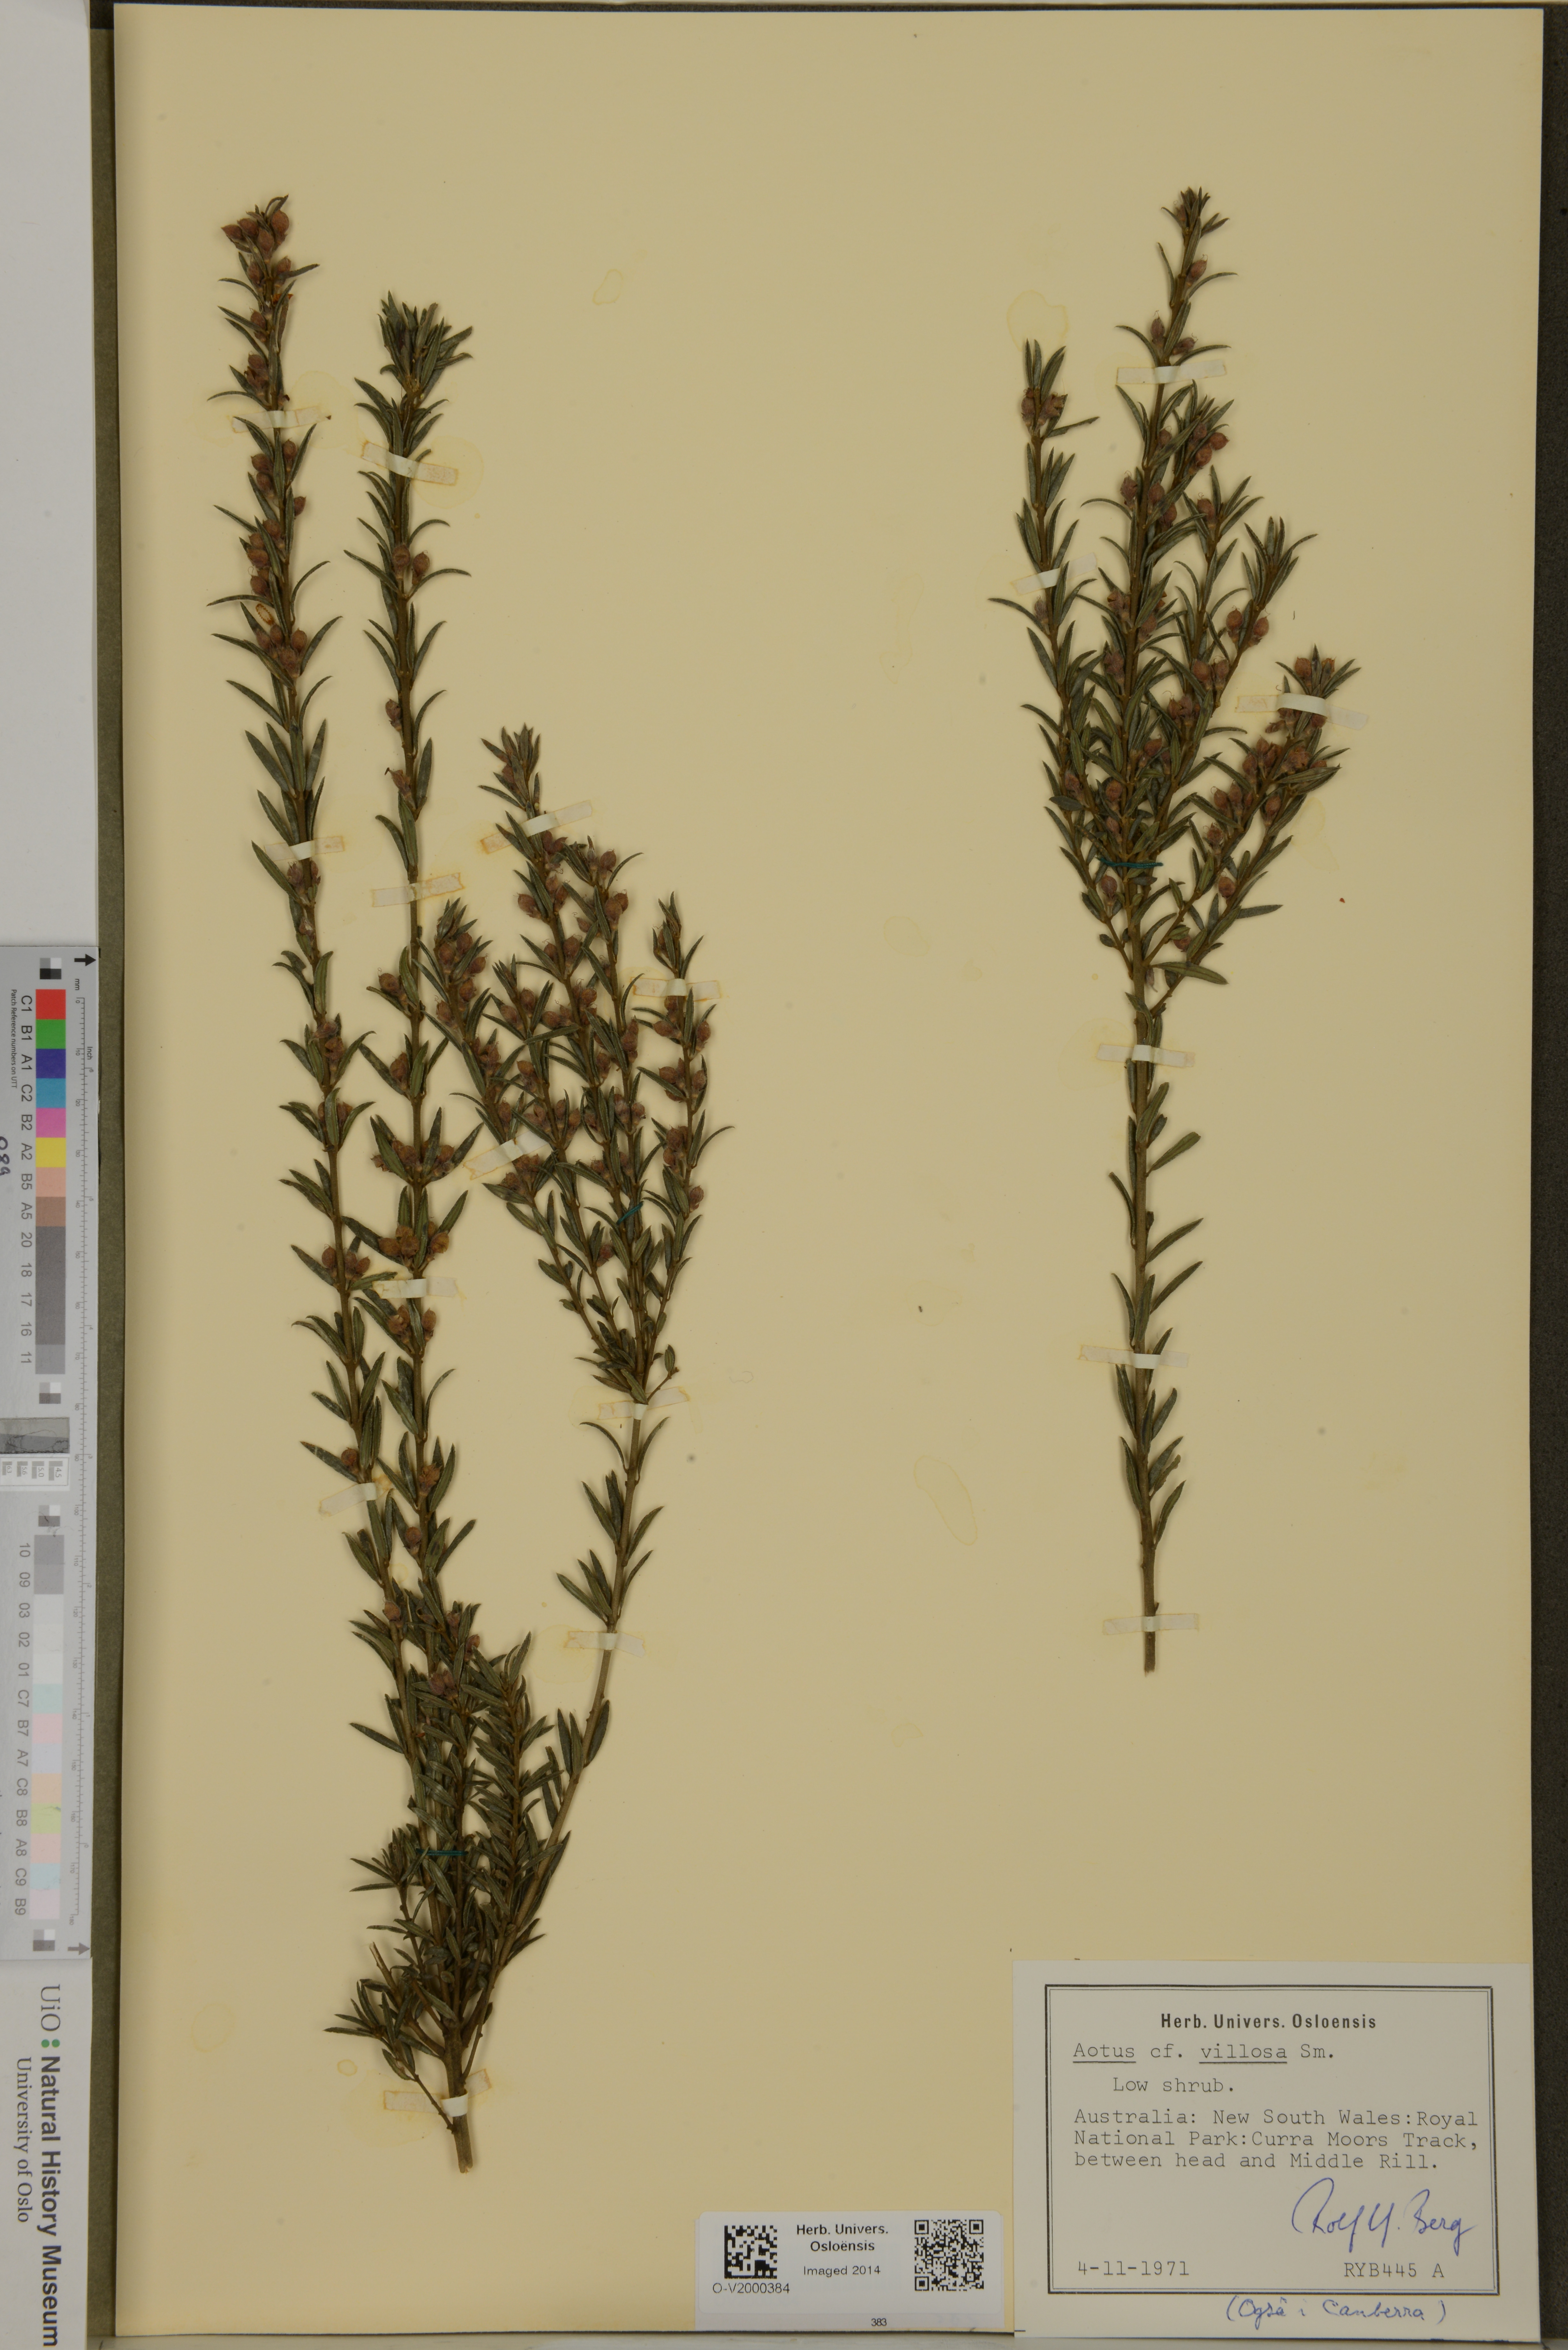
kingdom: Plantae
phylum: Tracheophyta
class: Magnoliopsida
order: Fabales
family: Fabaceae
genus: Aotus
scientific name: Aotus ericoides
